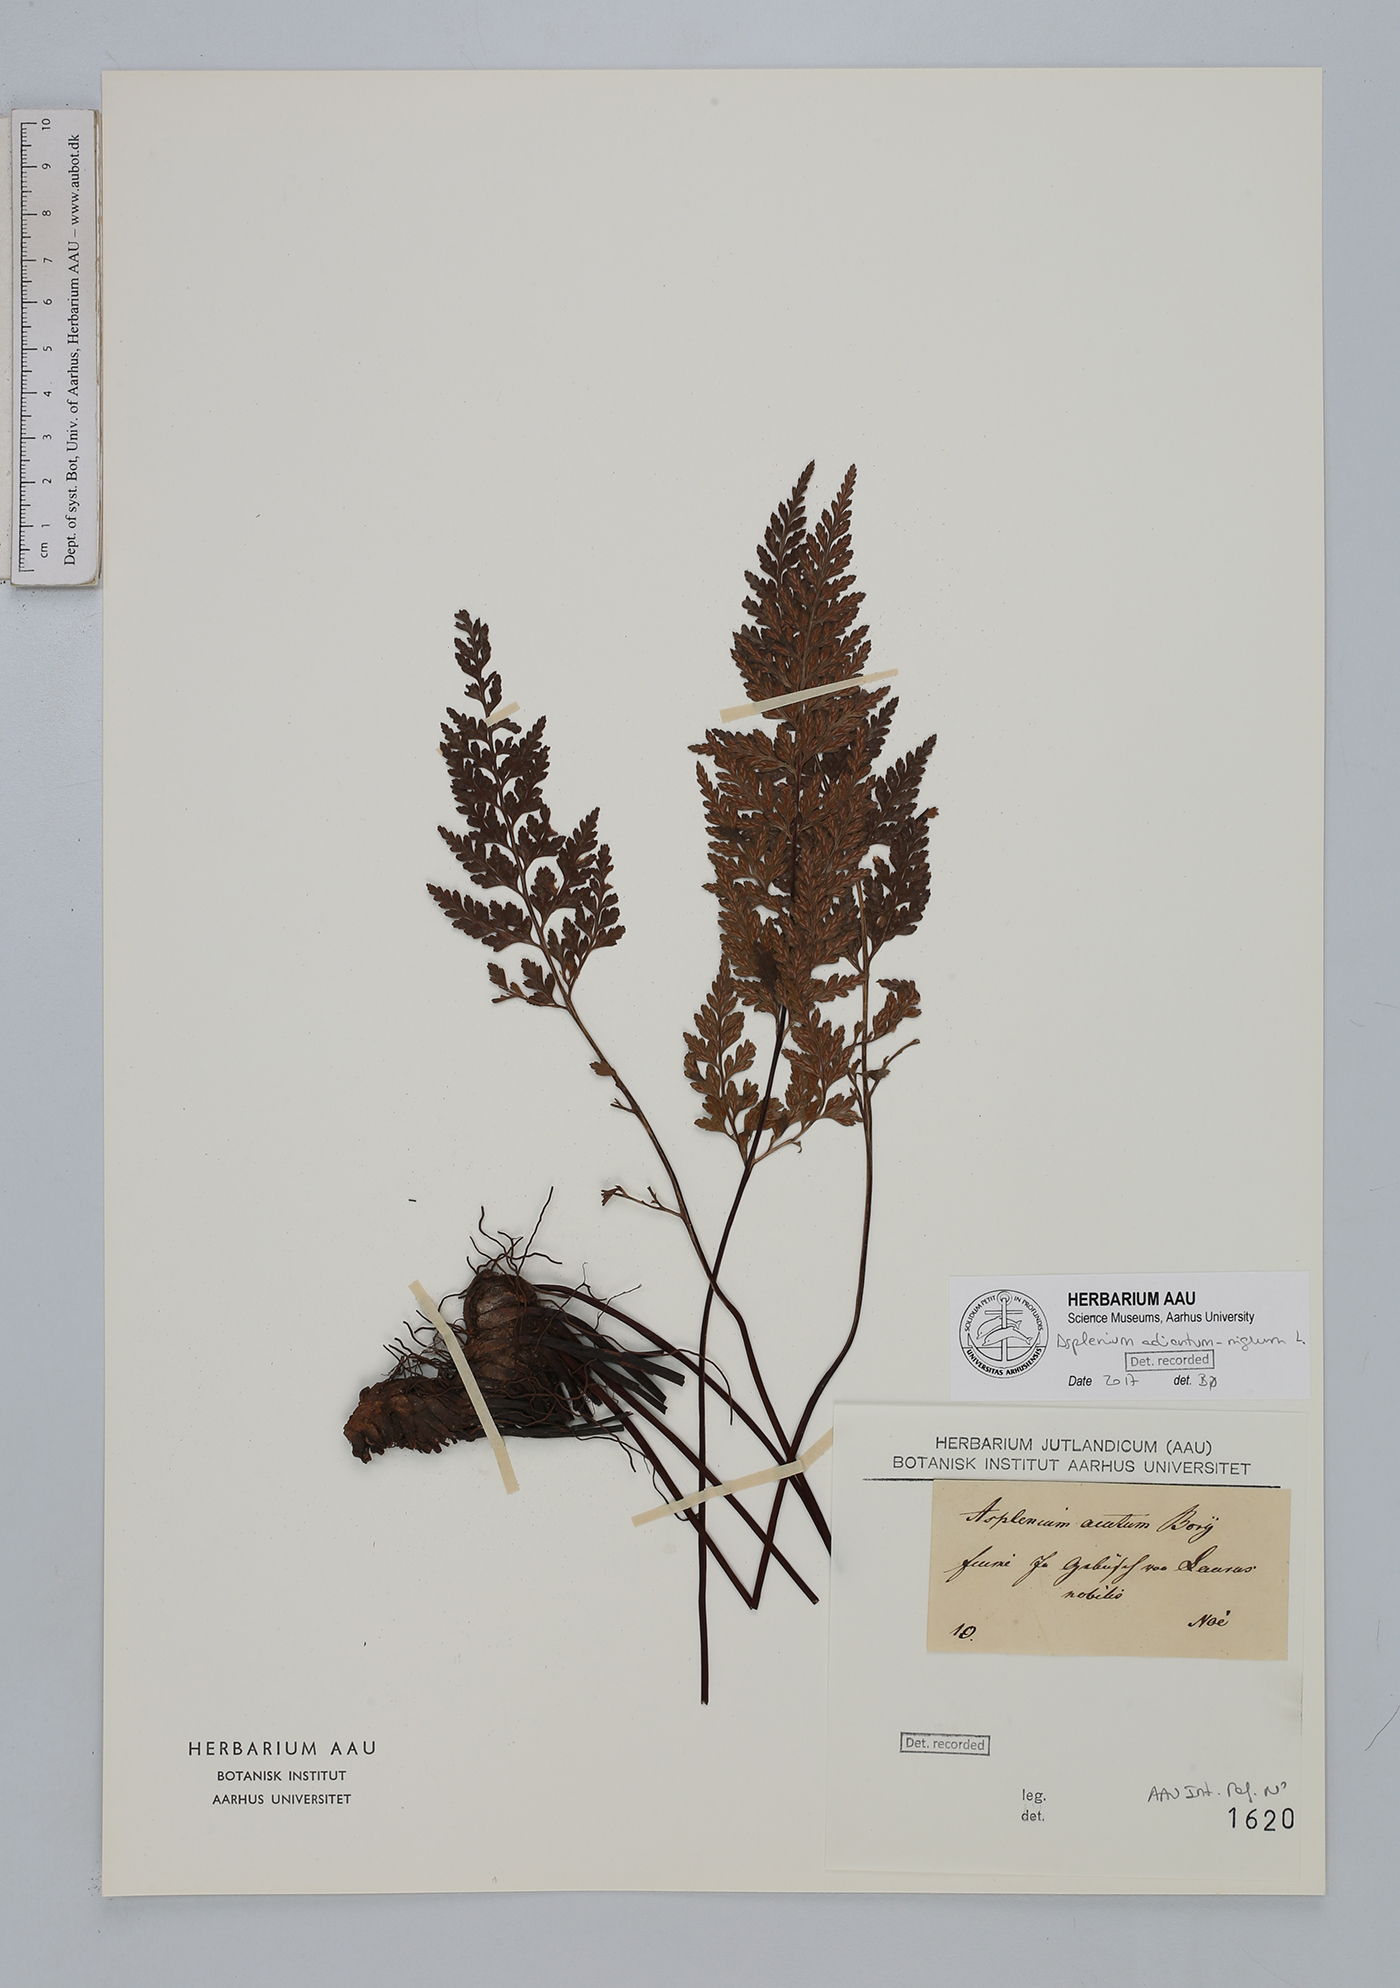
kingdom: Plantae
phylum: Tracheophyta
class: Polypodiopsida
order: Polypodiales
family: Aspleniaceae
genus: Asplenium
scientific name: Asplenium adiantum-nigrum
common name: Black spleenwort
